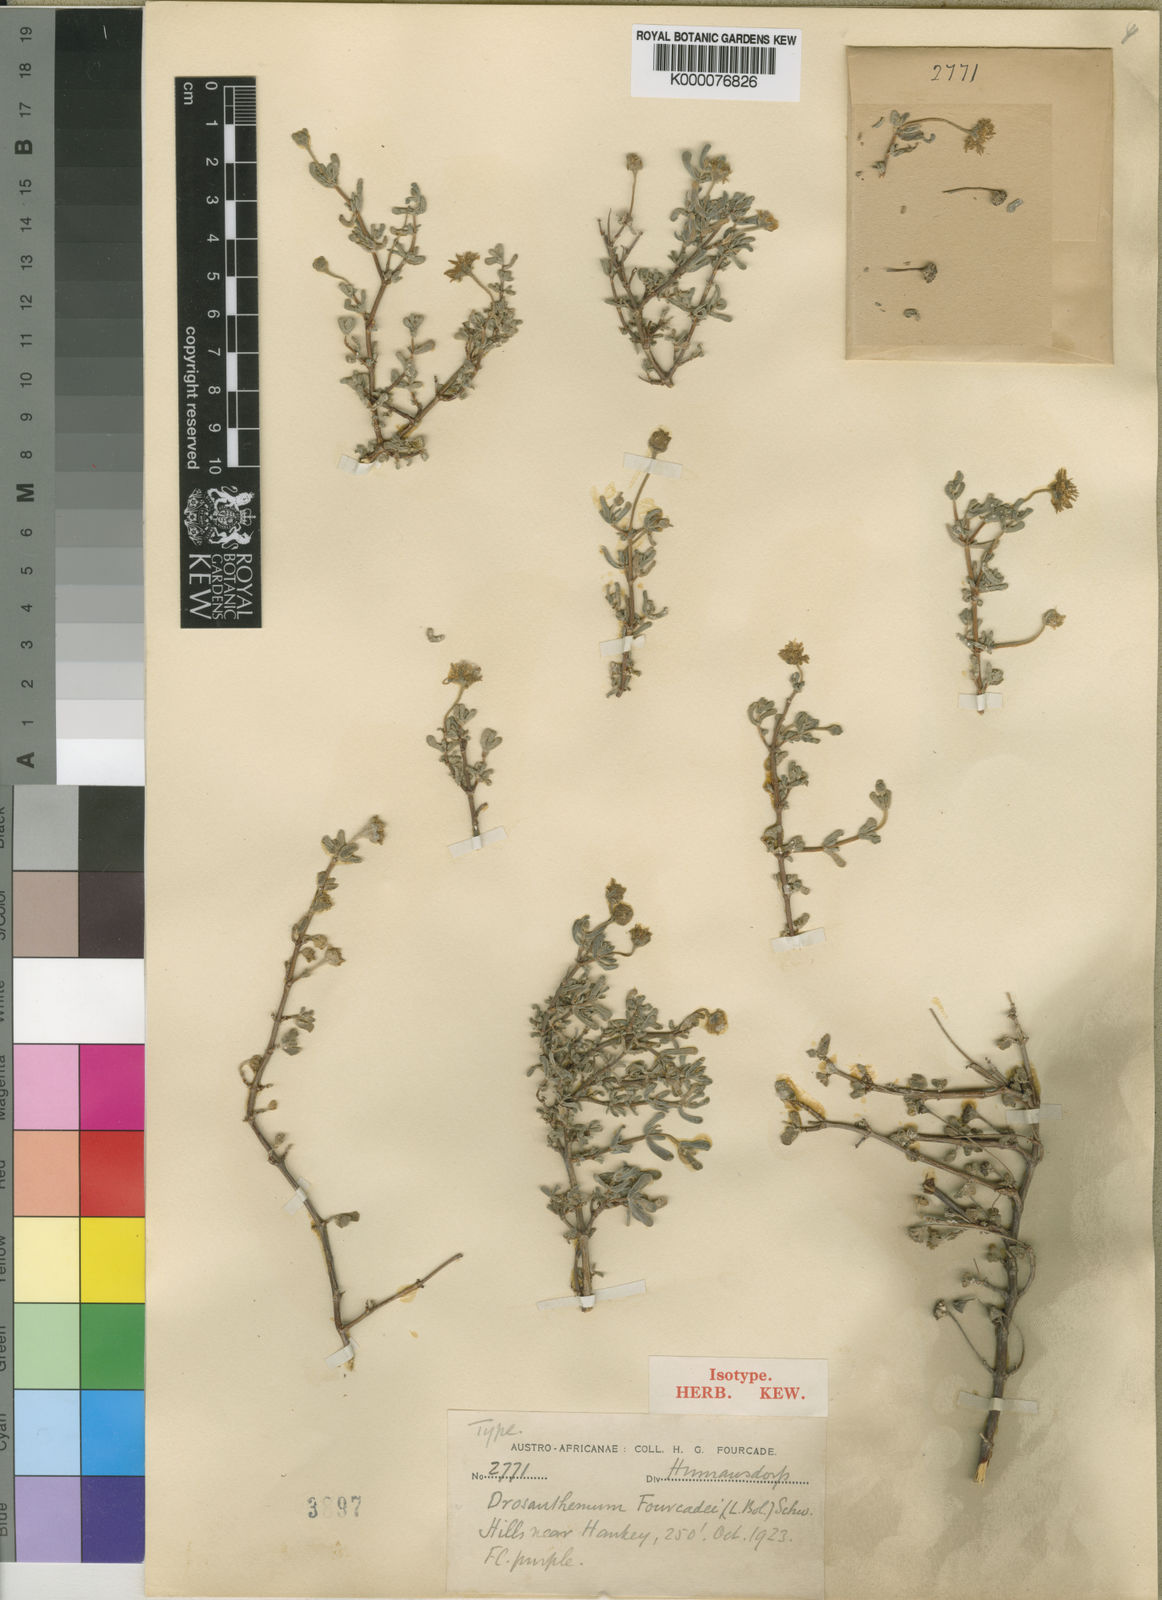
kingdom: Plantae
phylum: Tracheophyta
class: Magnoliopsida
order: Caryophyllales
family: Aizoaceae
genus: Drosanthemum
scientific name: Drosanthemum fourcadei
